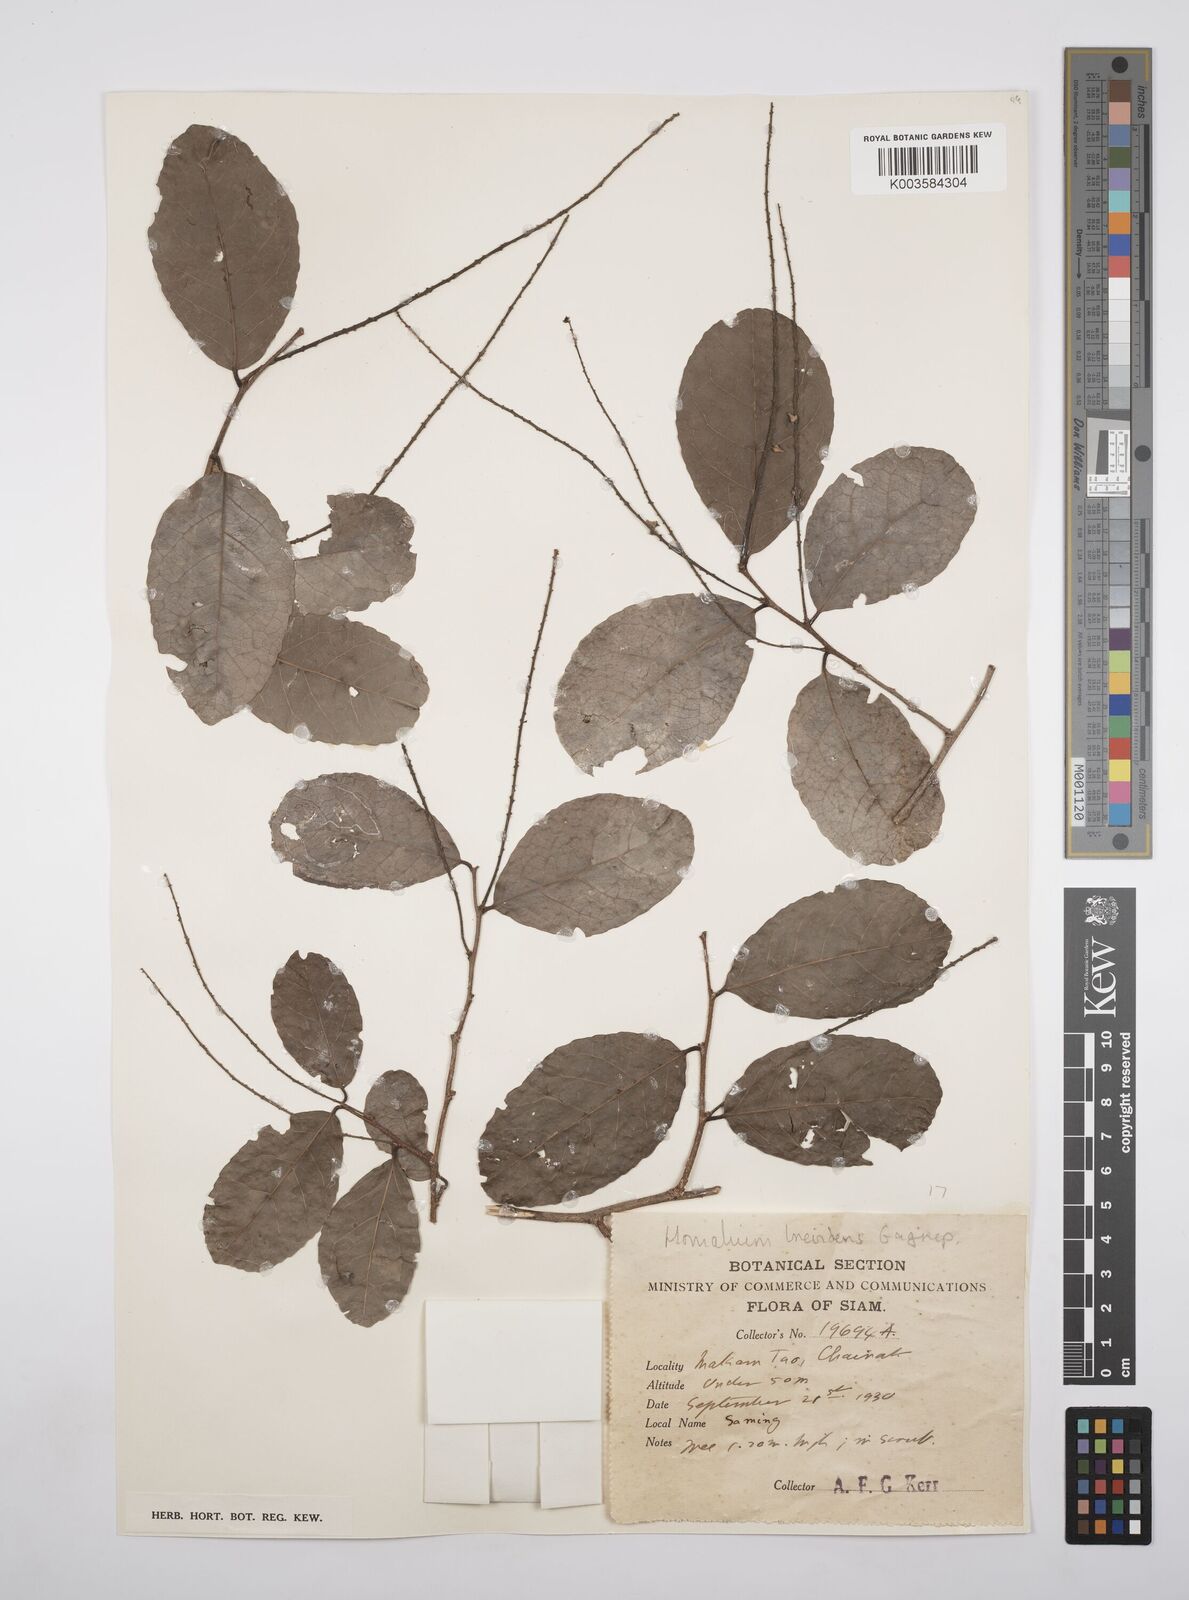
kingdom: Plantae
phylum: Tracheophyta
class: Magnoliopsida
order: Malpighiales
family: Salicaceae
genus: Homalium
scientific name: Homalium brevidens
